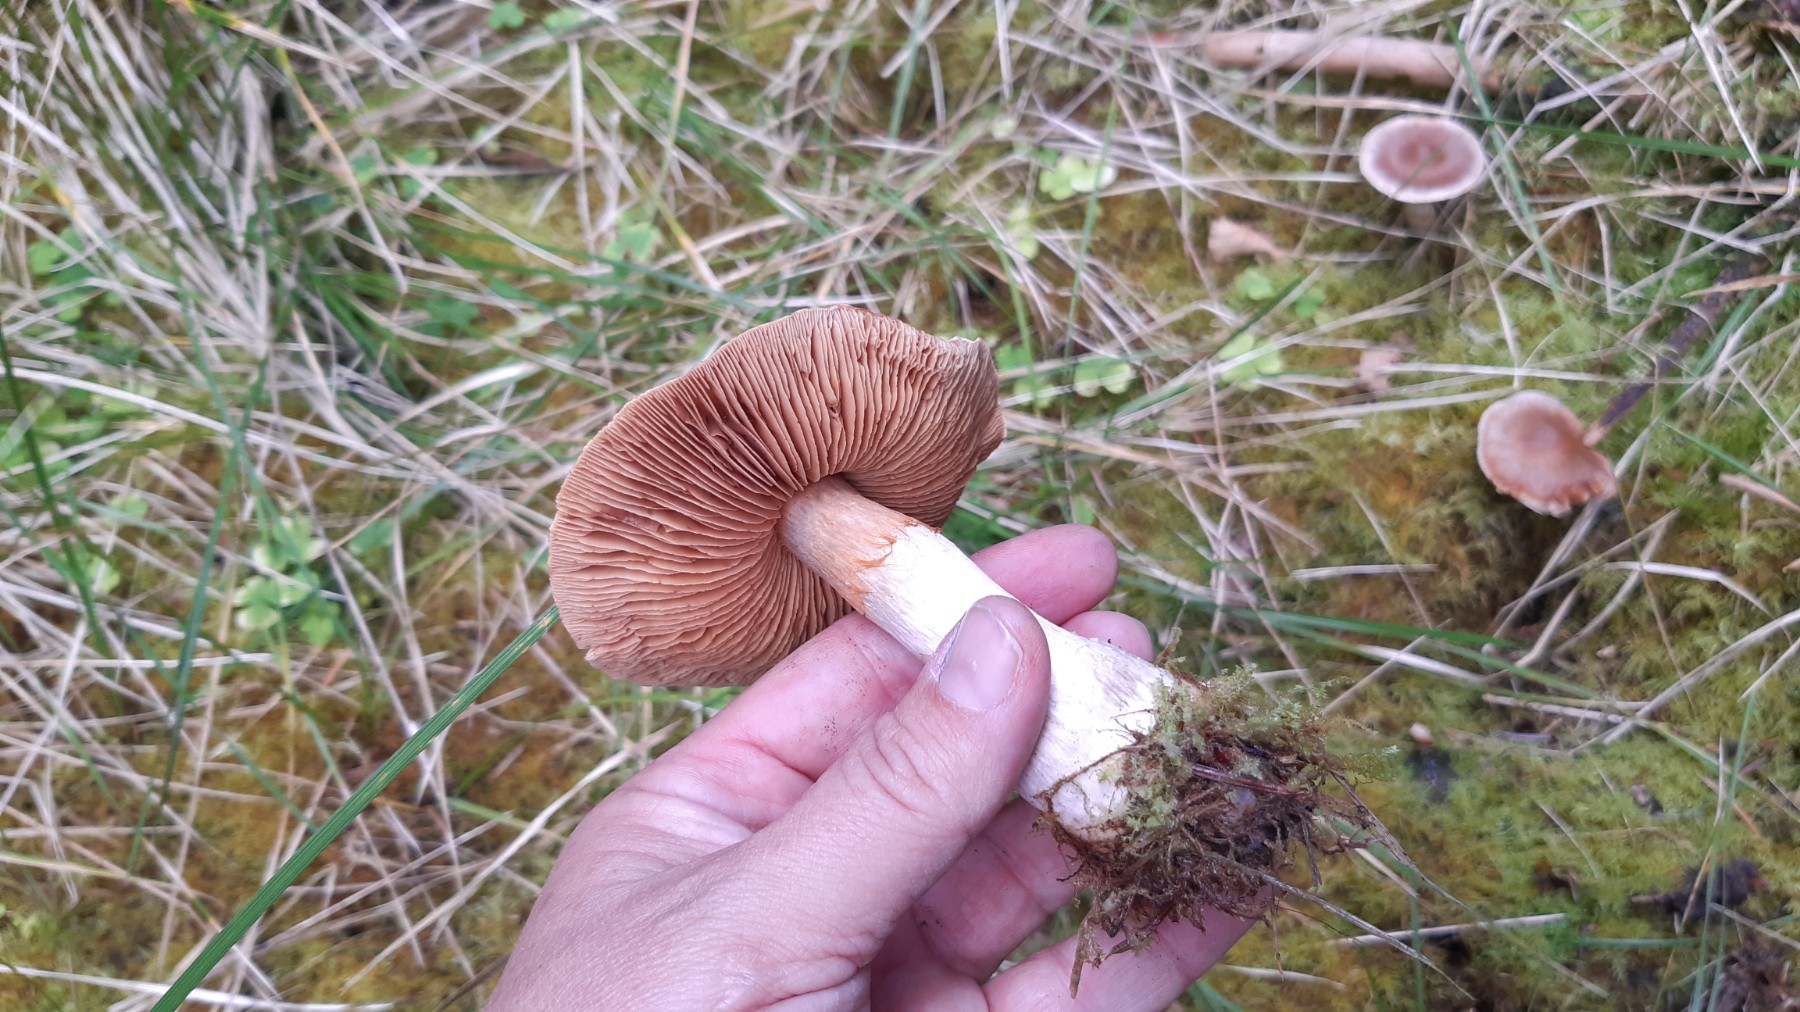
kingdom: Fungi
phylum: Basidiomycota
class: Agaricomycetes
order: Agaricales
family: Cortinariaceae
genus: Cortinarius
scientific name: Cortinarius
